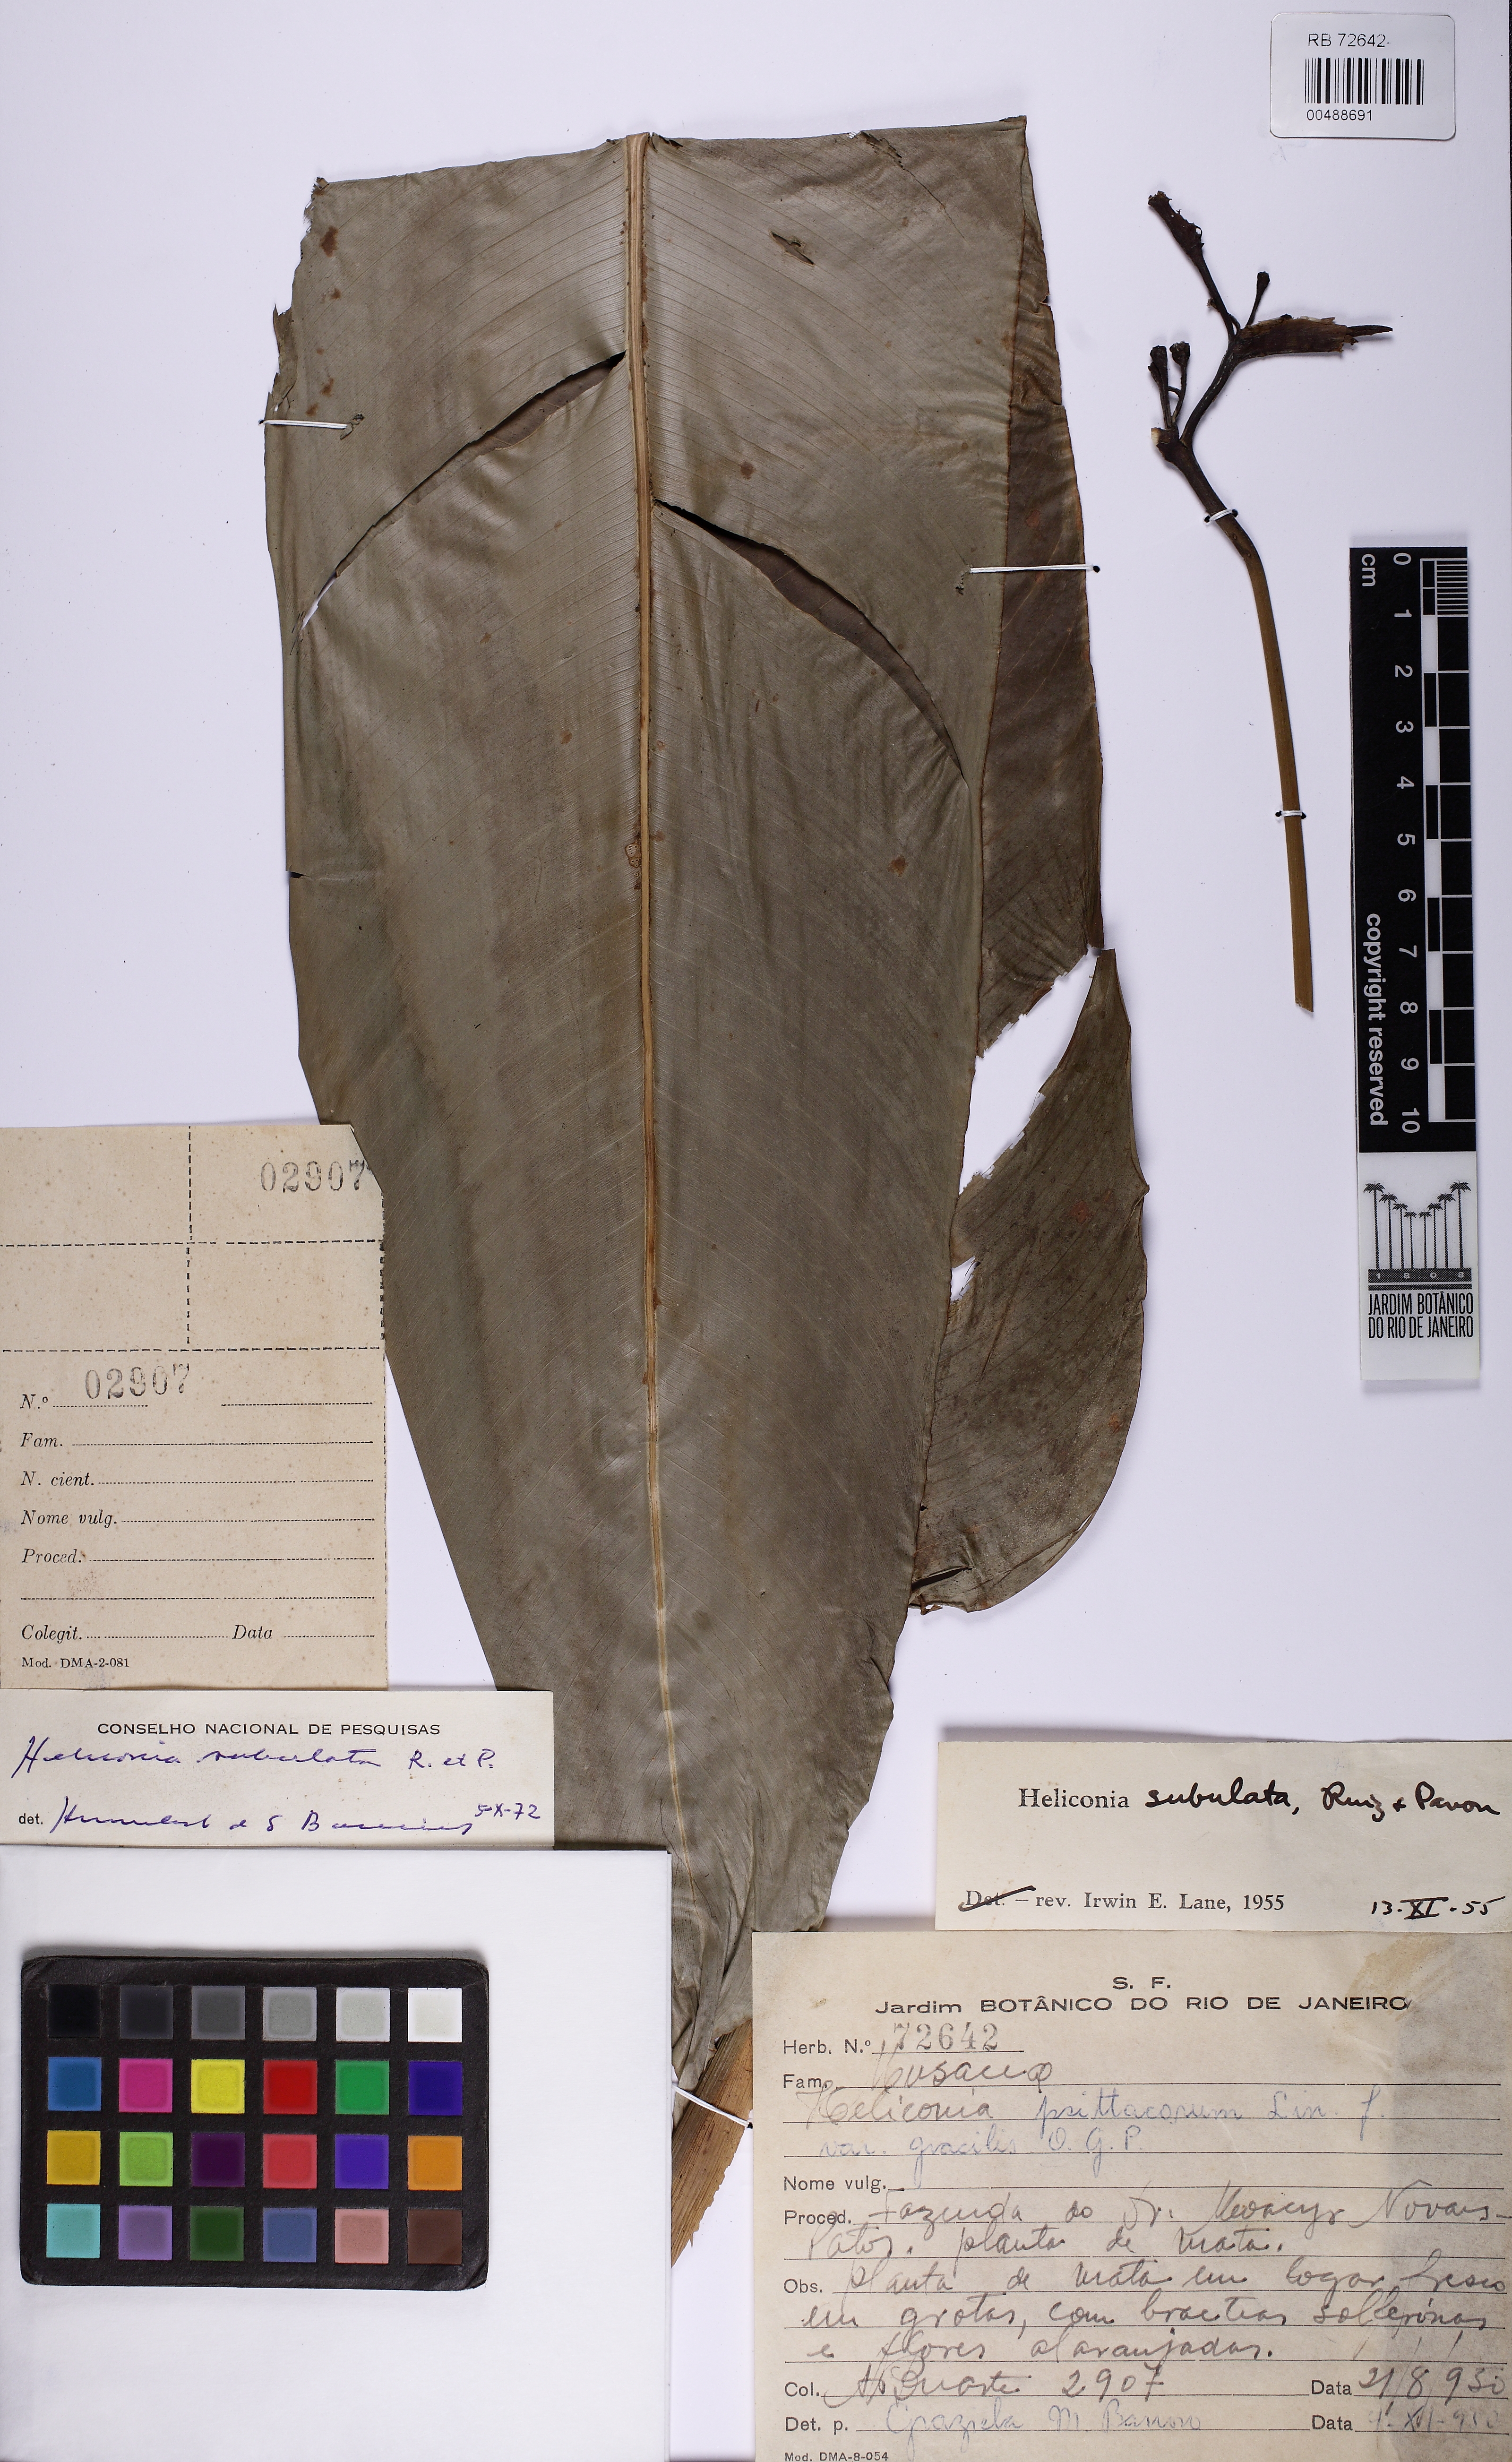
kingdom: Plantae
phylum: Tracheophyta
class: Liliopsida
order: Zingiberales
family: Heliconiaceae
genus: Heliconia
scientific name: Heliconia subulata
